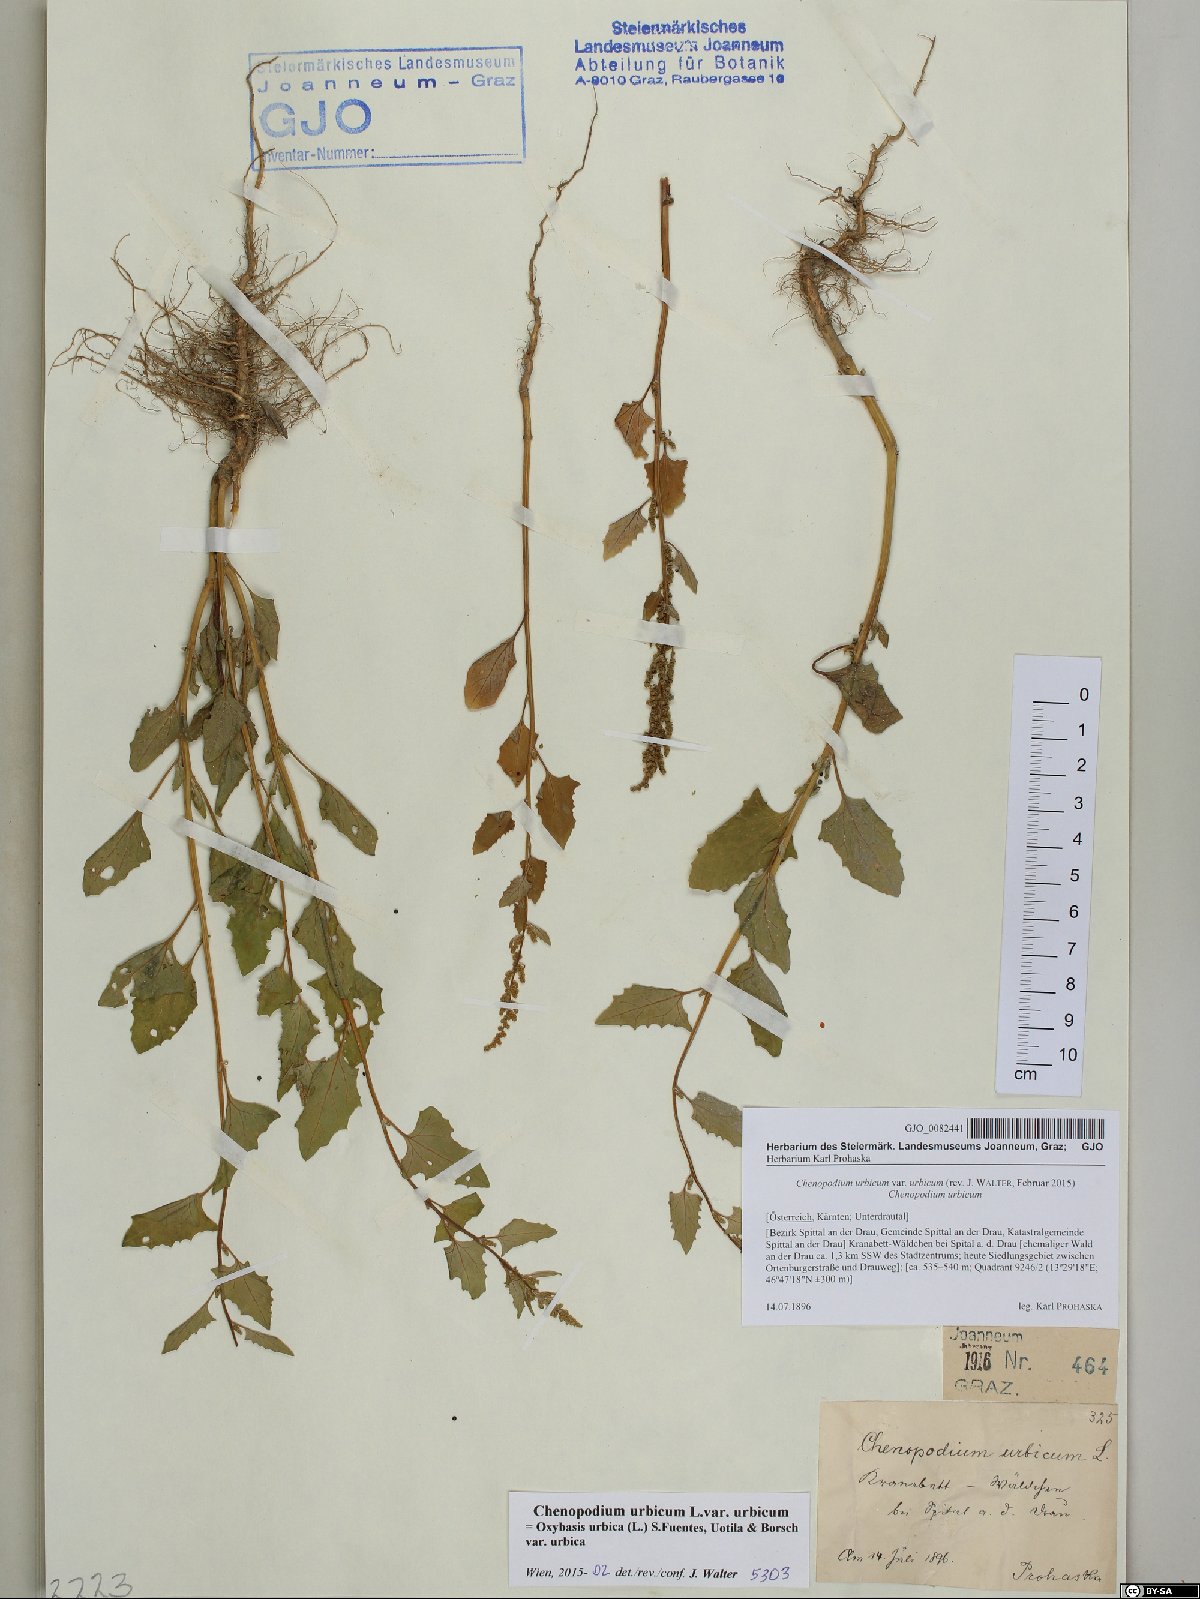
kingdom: Plantae
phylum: Tracheophyta
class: Magnoliopsida
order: Caryophyllales
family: Amaranthaceae
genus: Oxybasis
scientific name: Oxybasis urbica
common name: City goosefoot
